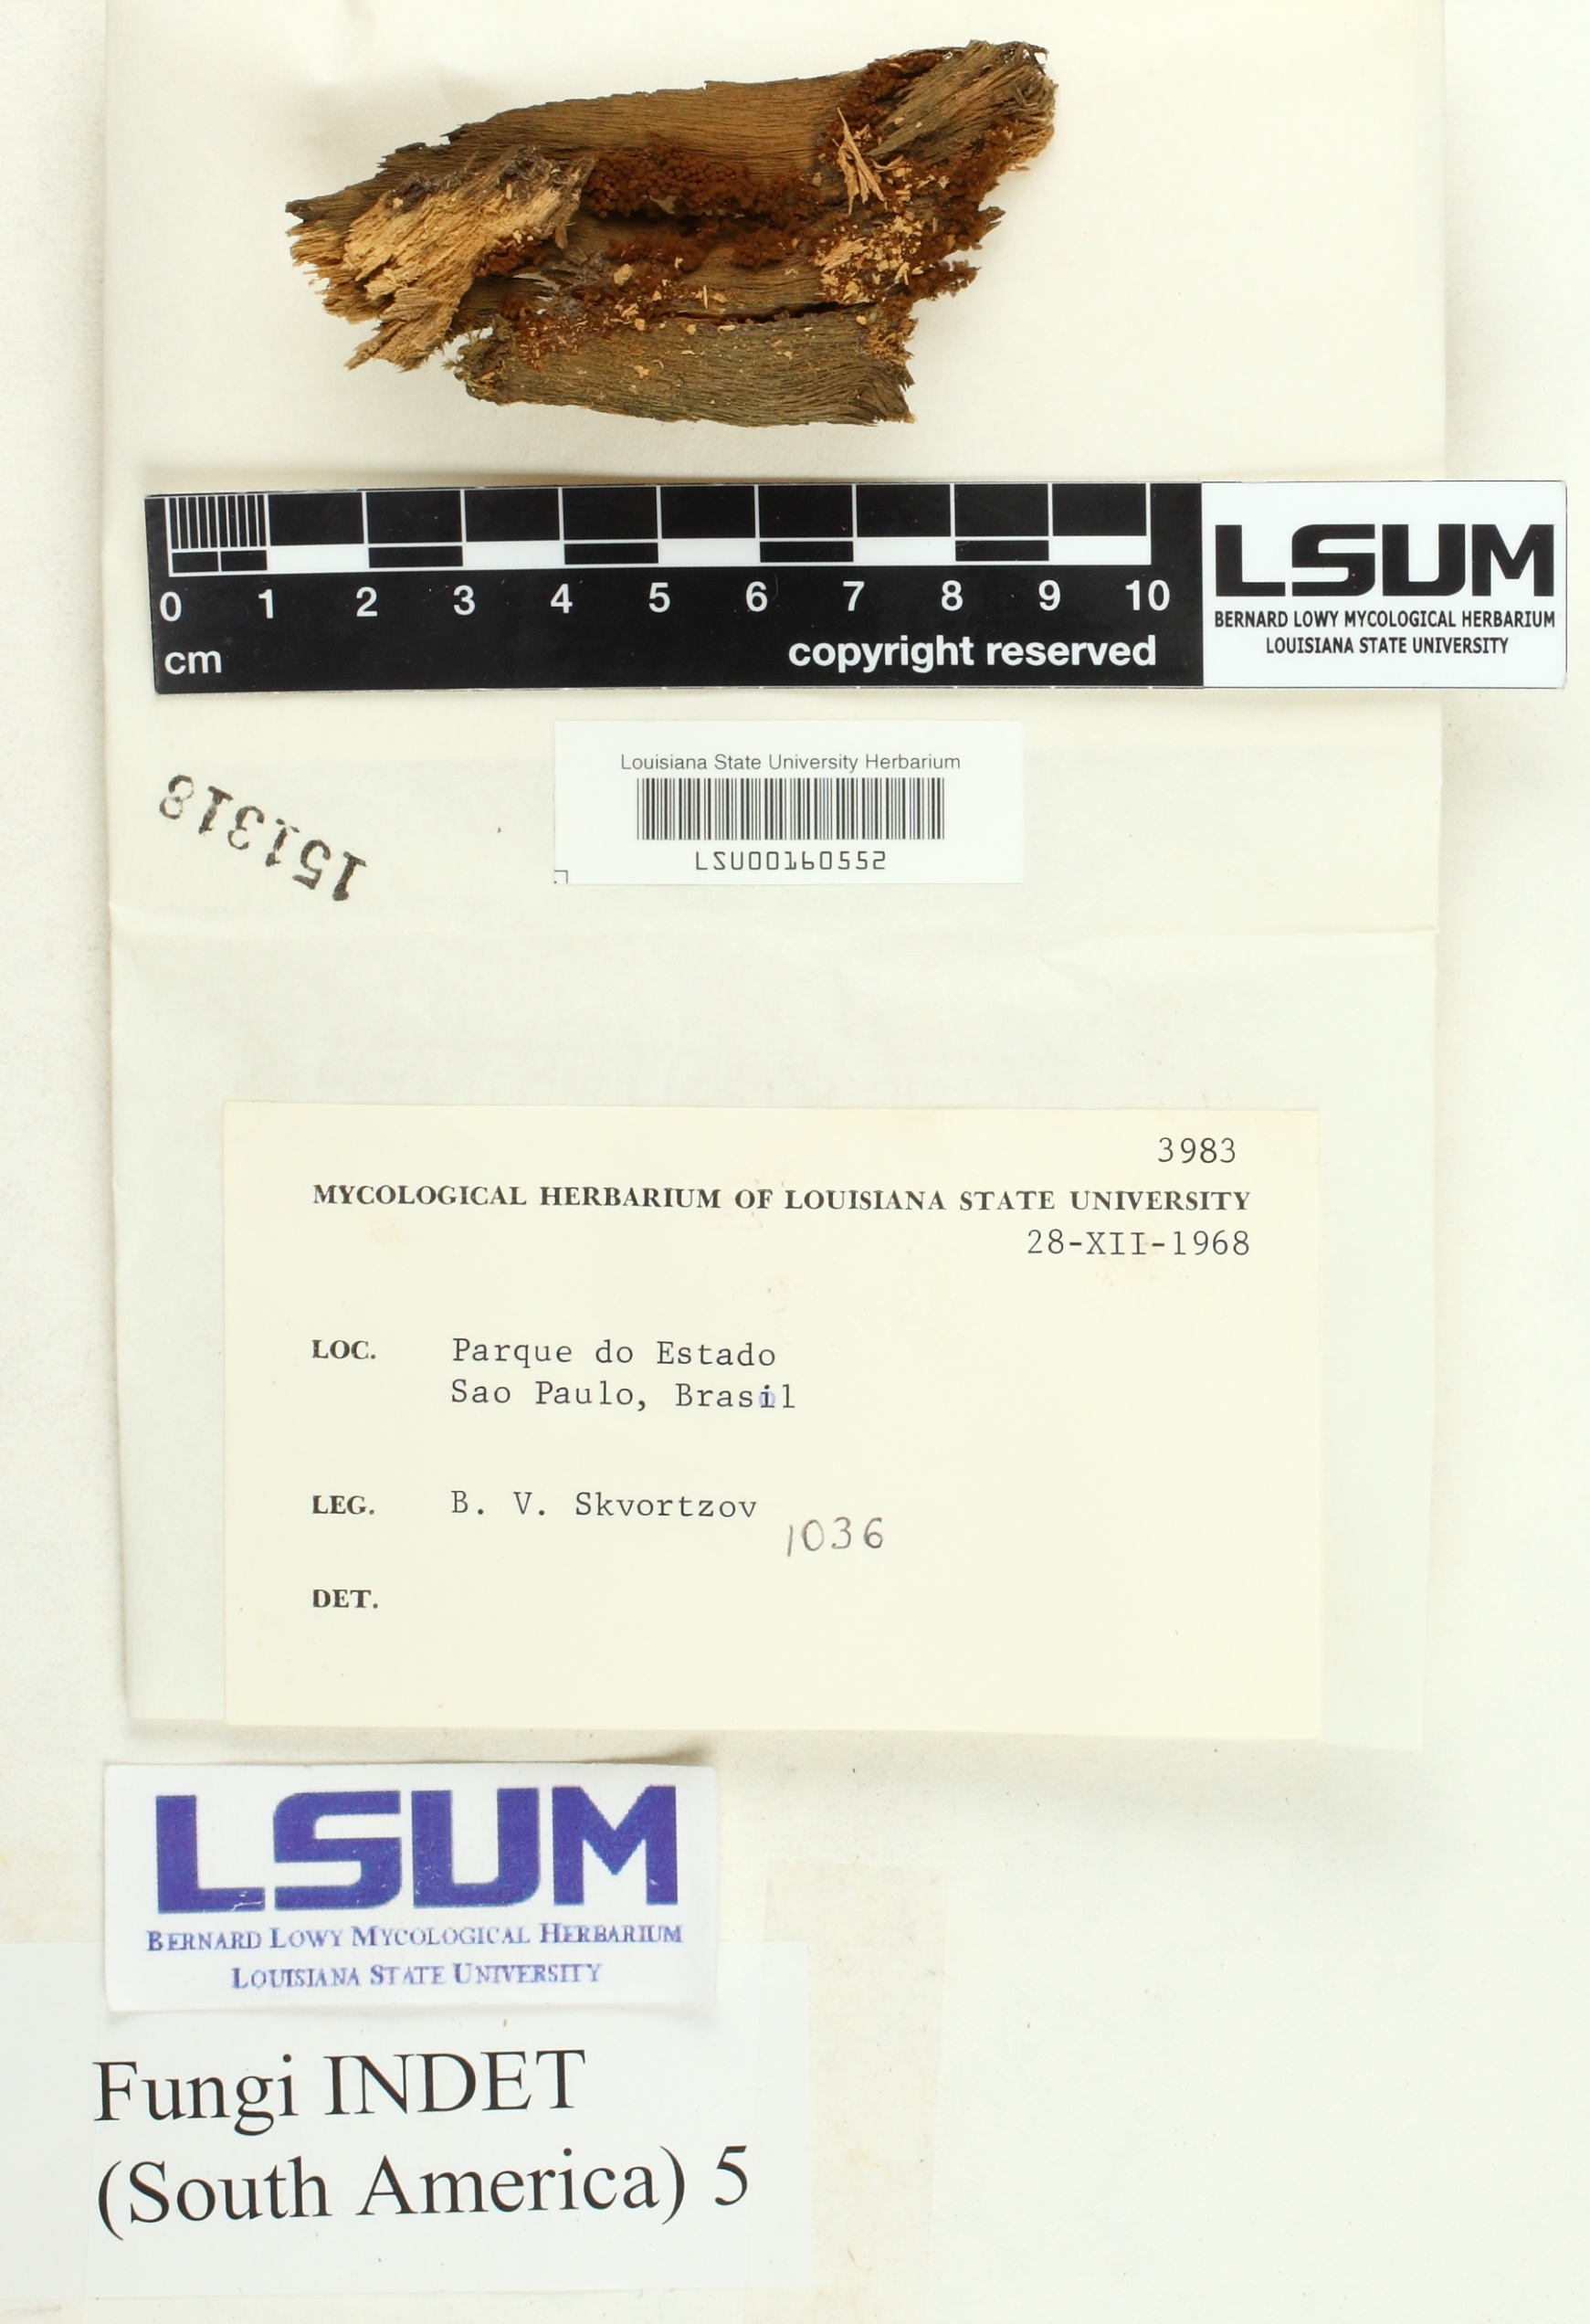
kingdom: Fungi
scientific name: Fungi
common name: Fungi
